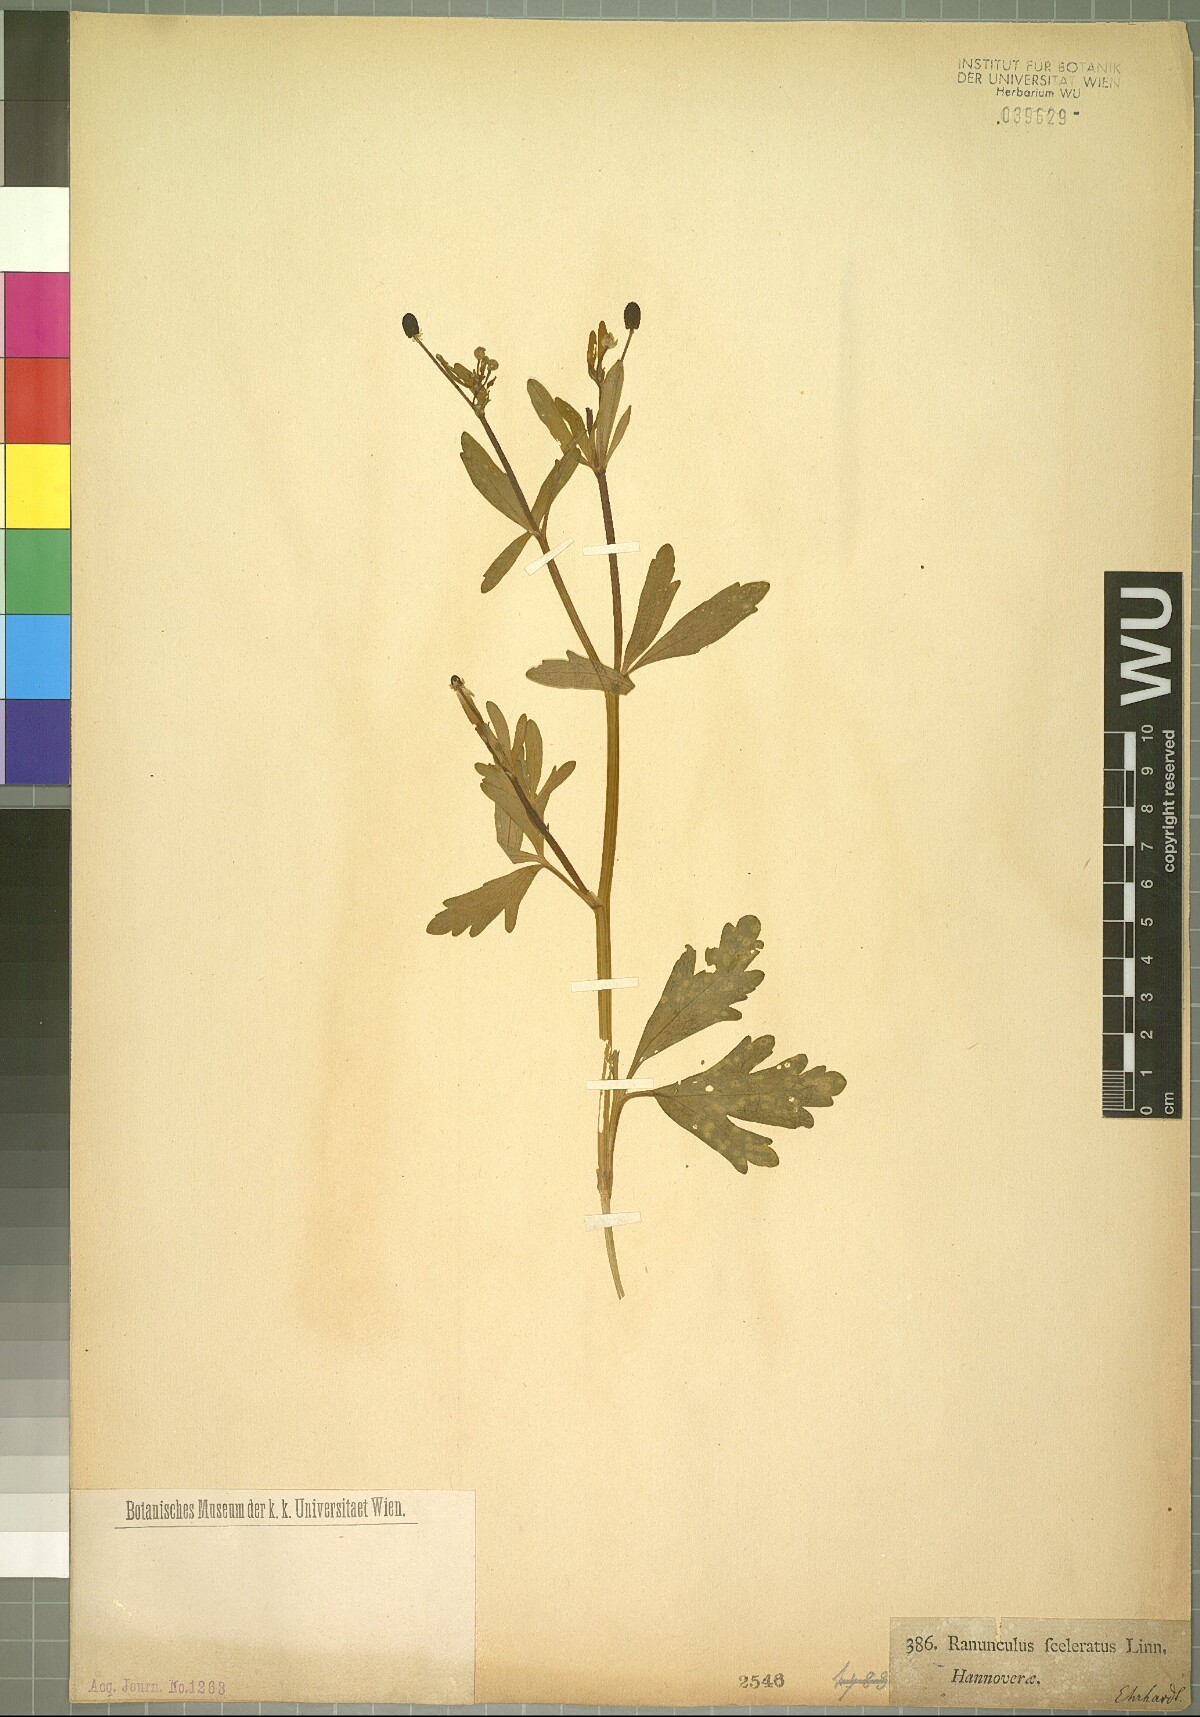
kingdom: Plantae
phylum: Tracheophyta
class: Magnoliopsida
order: Ranunculales
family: Ranunculaceae
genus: Ranunculus
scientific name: Ranunculus sceleratus
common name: Celery-leaved buttercup
